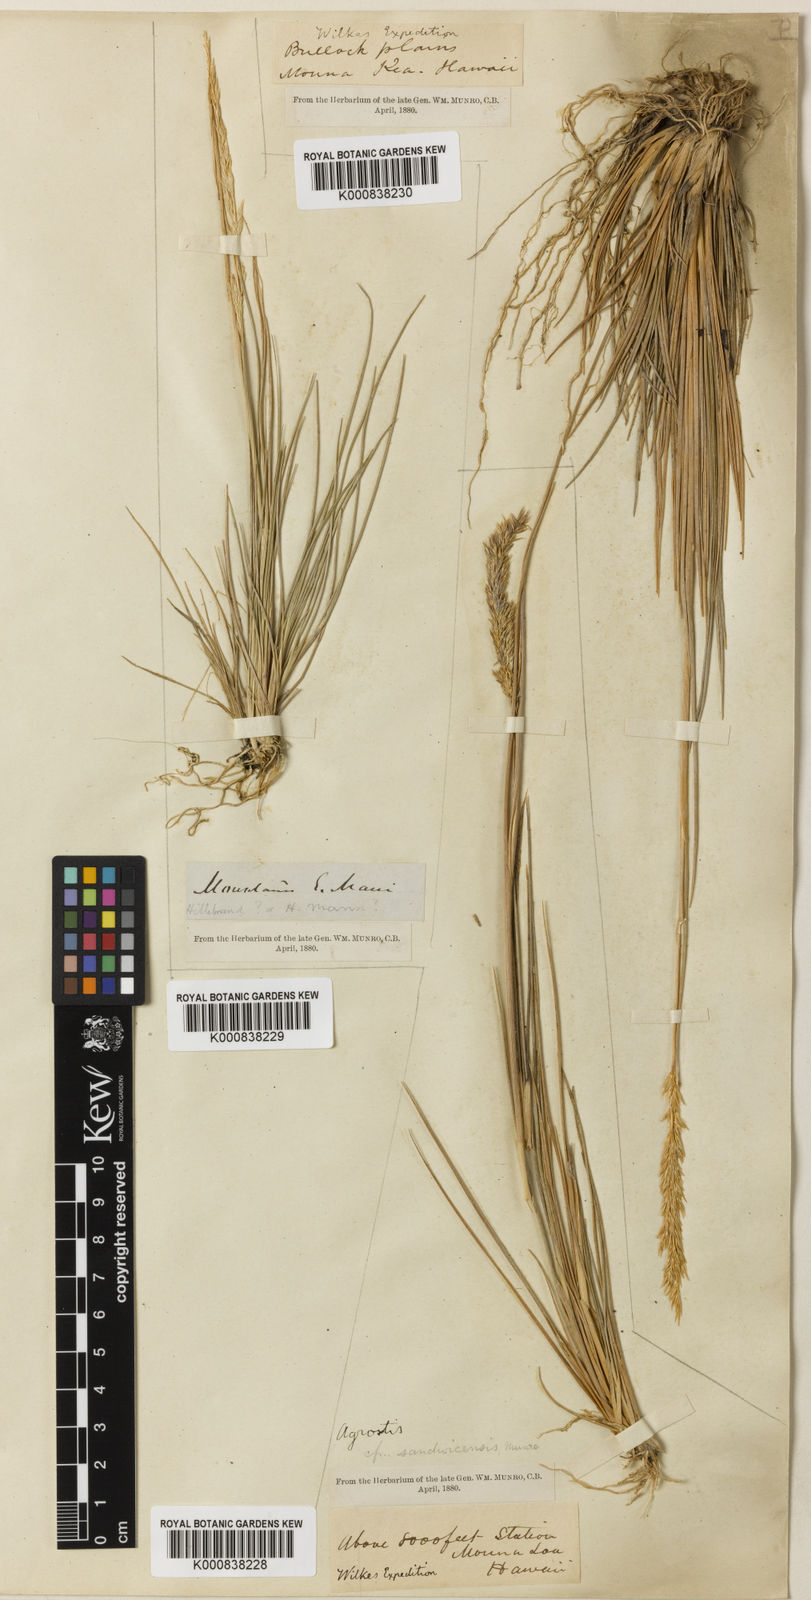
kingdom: Plantae
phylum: Tracheophyta
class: Liliopsida
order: Poales
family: Poaceae
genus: Agrostis
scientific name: Agrostis
